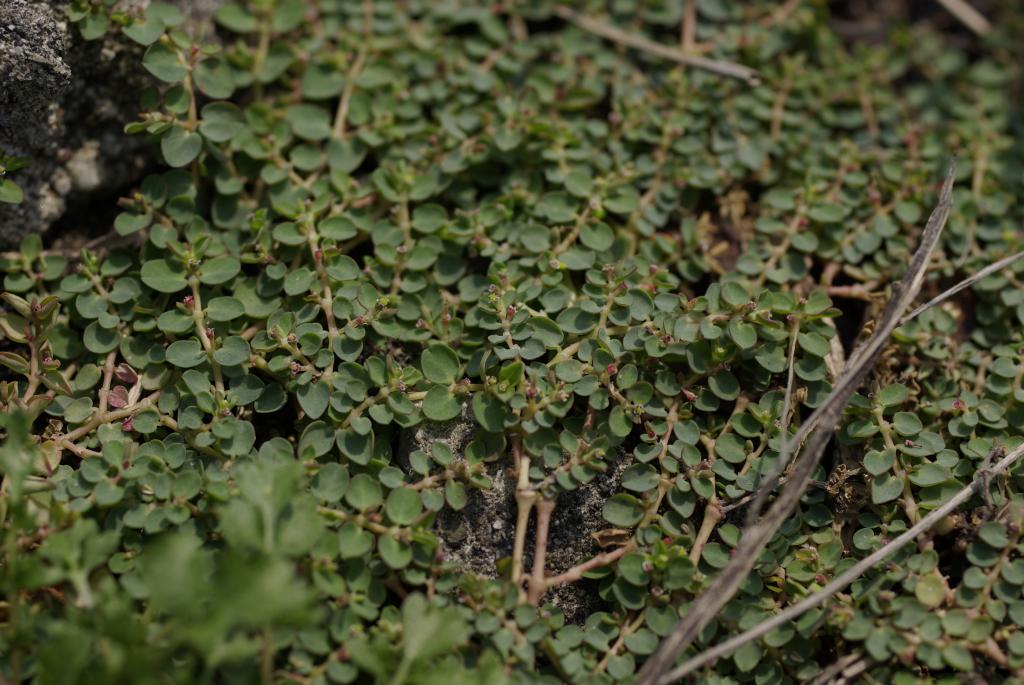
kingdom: Plantae
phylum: Tracheophyta
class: Magnoliopsida
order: Malpighiales
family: Euphorbiaceae
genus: Euphorbia
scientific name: Euphorbia serpens
